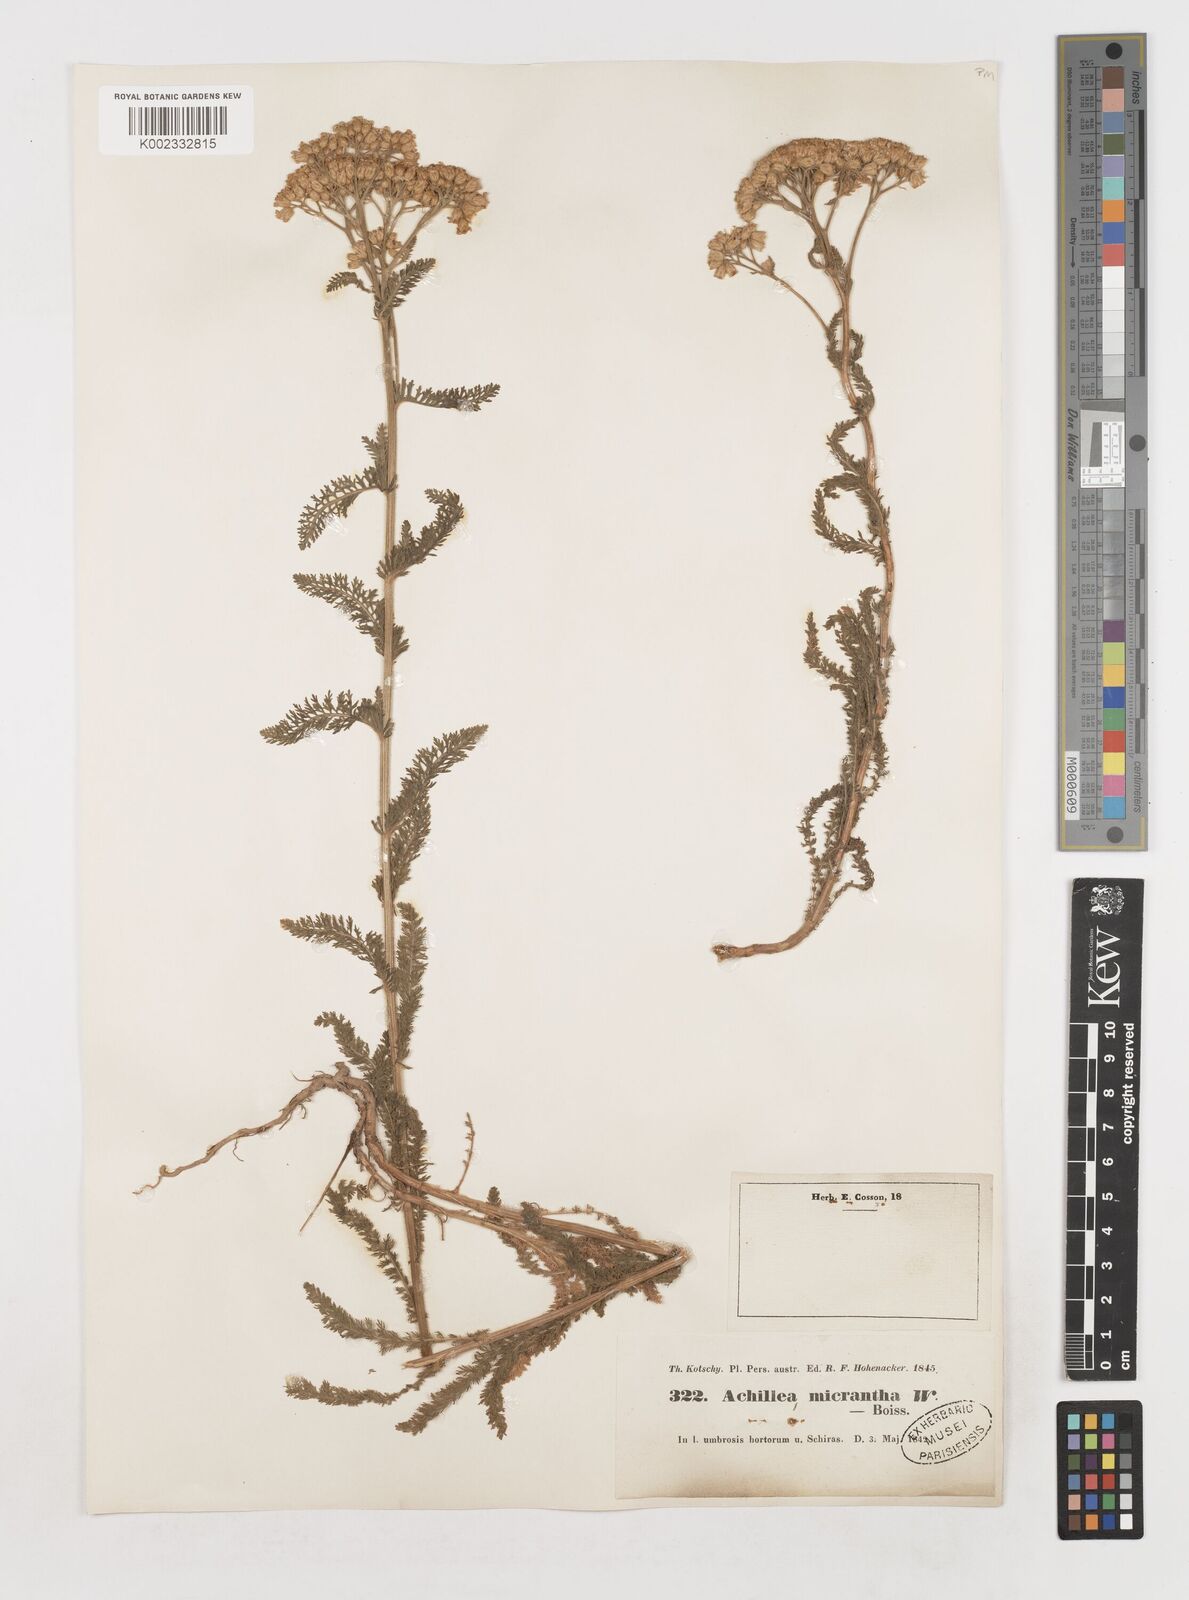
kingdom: Plantae
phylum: Tracheophyta
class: Magnoliopsida
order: Asterales
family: Asteraceae
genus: Achillea
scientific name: Achillea arabica
